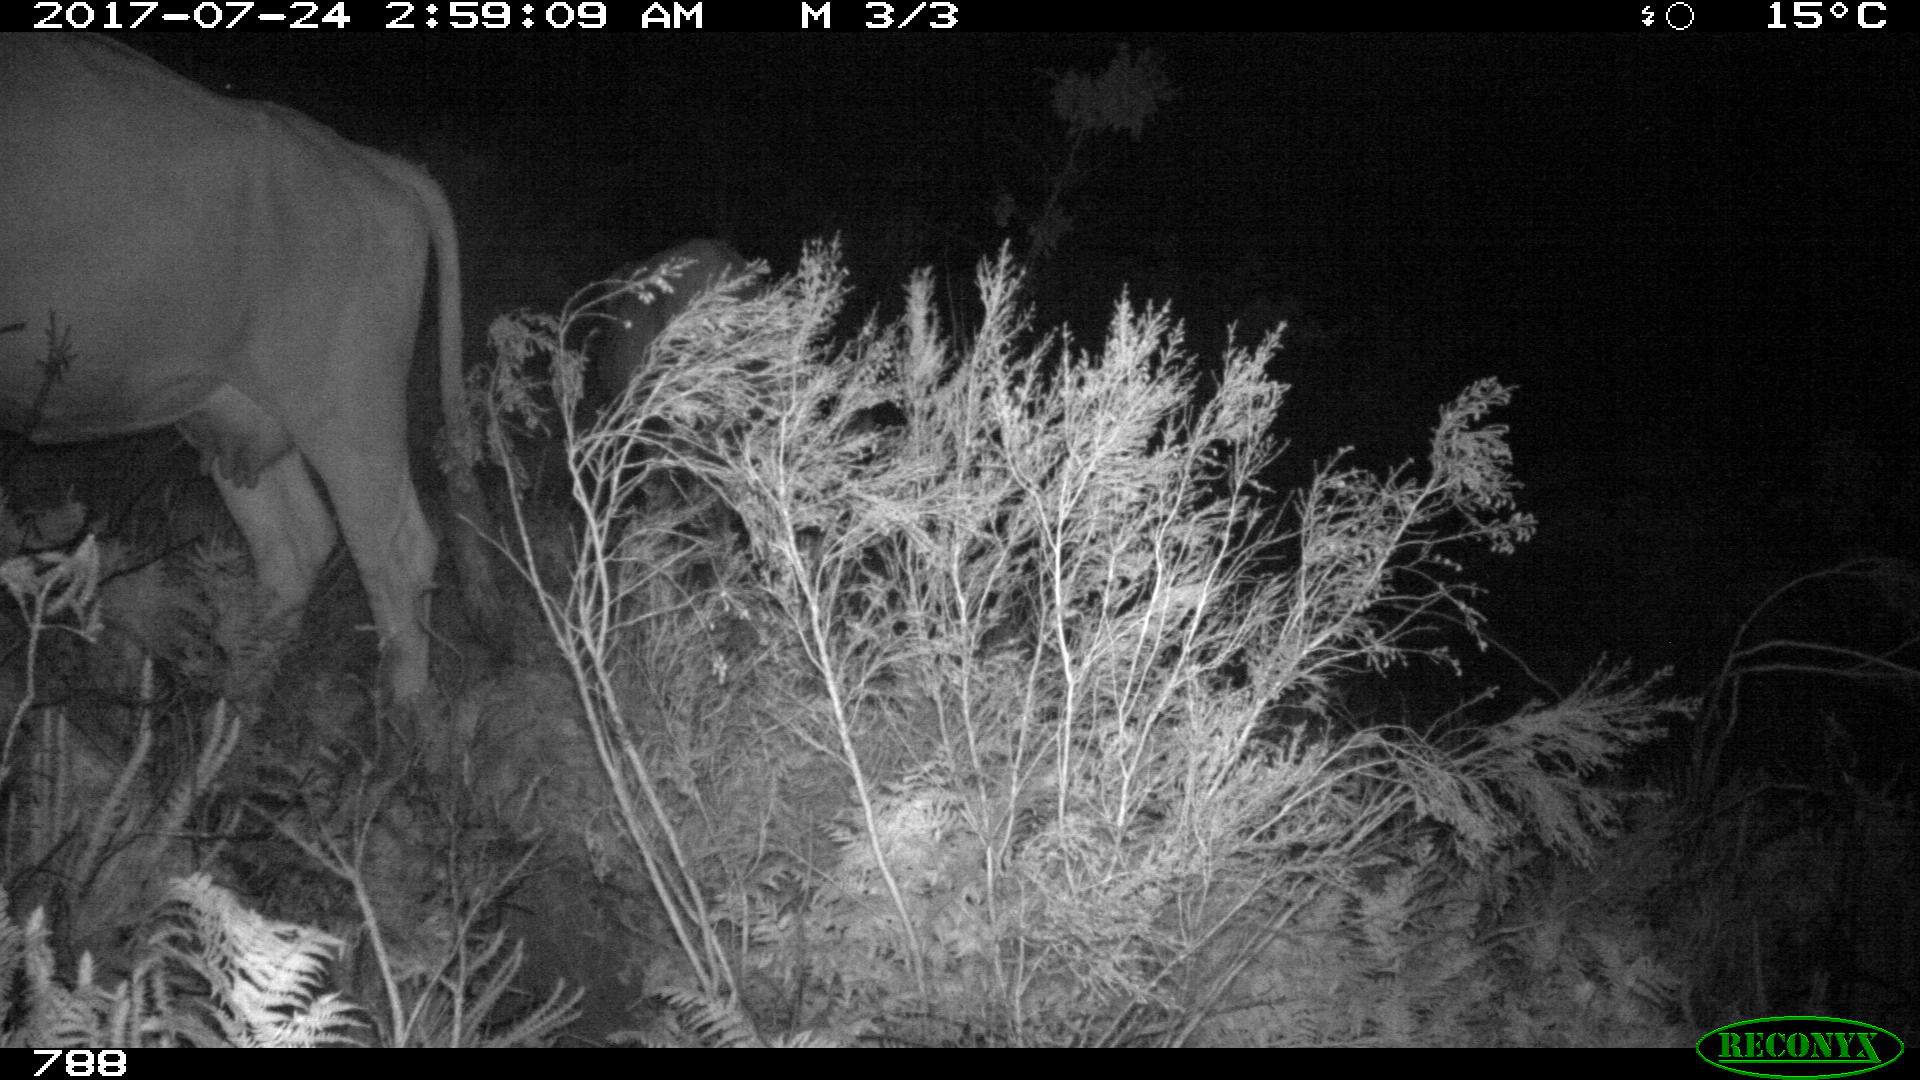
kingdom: Animalia
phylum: Chordata
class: Mammalia
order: Artiodactyla
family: Bovidae
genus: Bos
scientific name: Bos taurus
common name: Domesticated cattle
